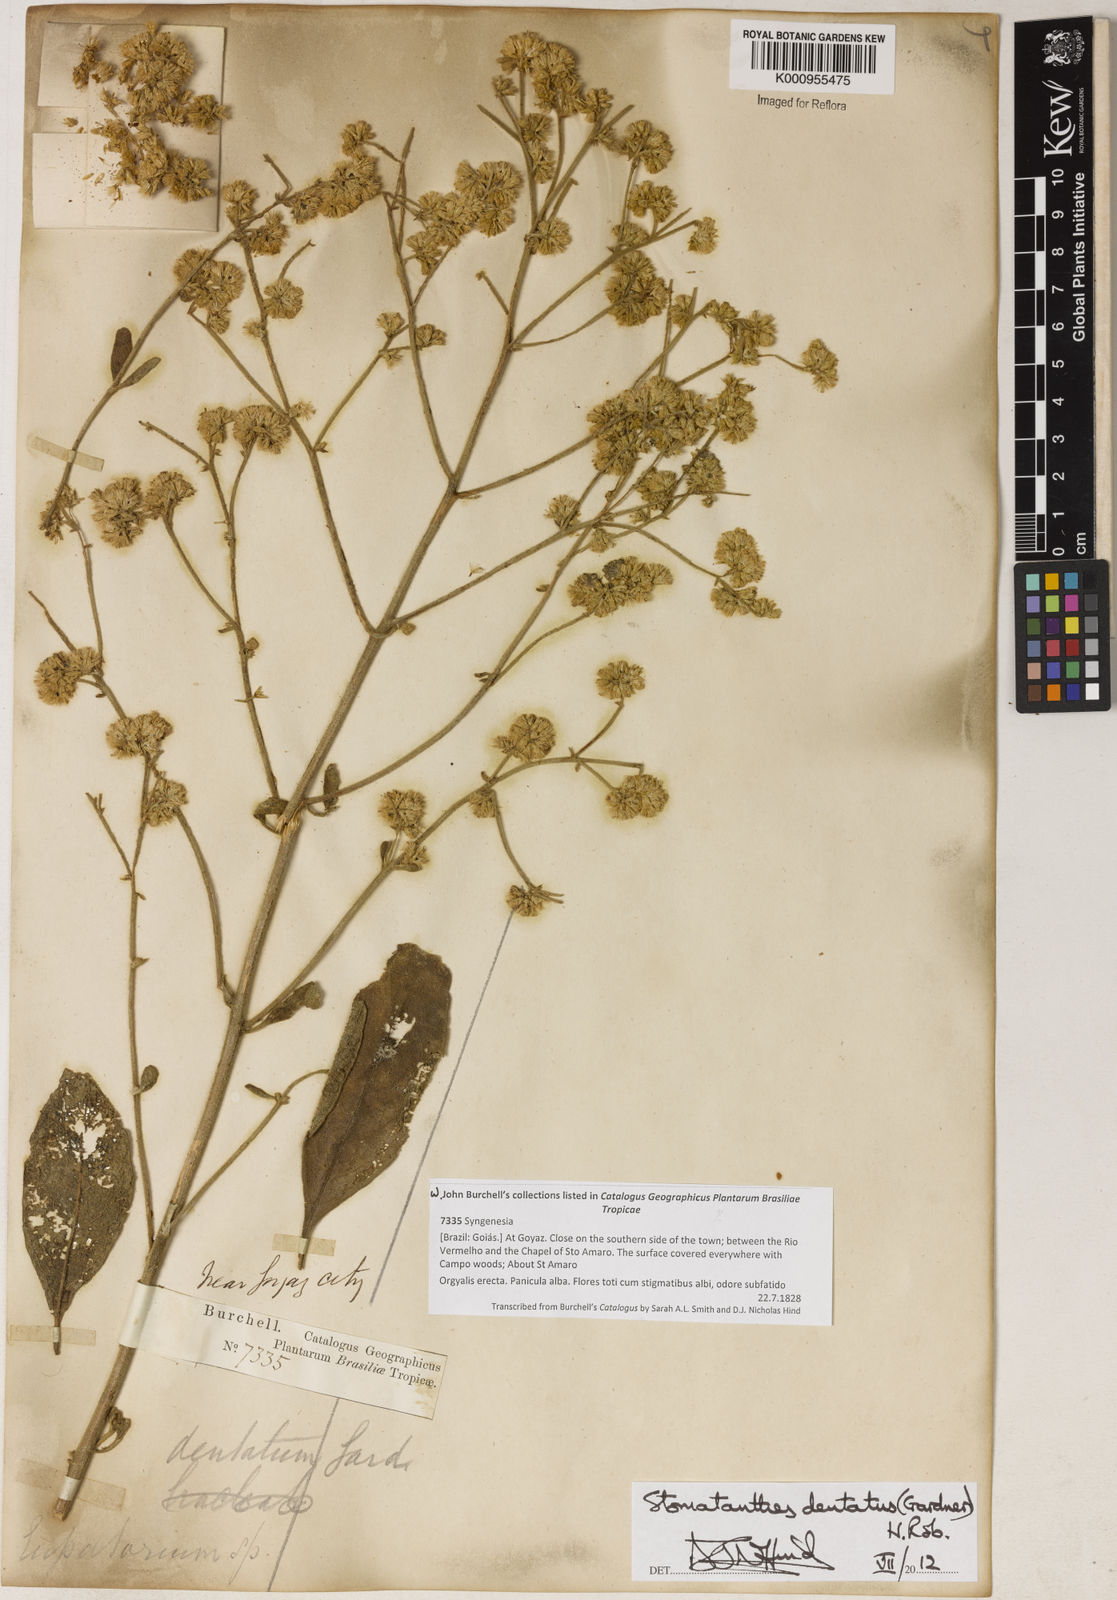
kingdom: Plantae
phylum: Tracheophyta
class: Magnoliopsida
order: Asterales
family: Asteraceae
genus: Stomatanthes
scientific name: Stomatanthes dentatus
